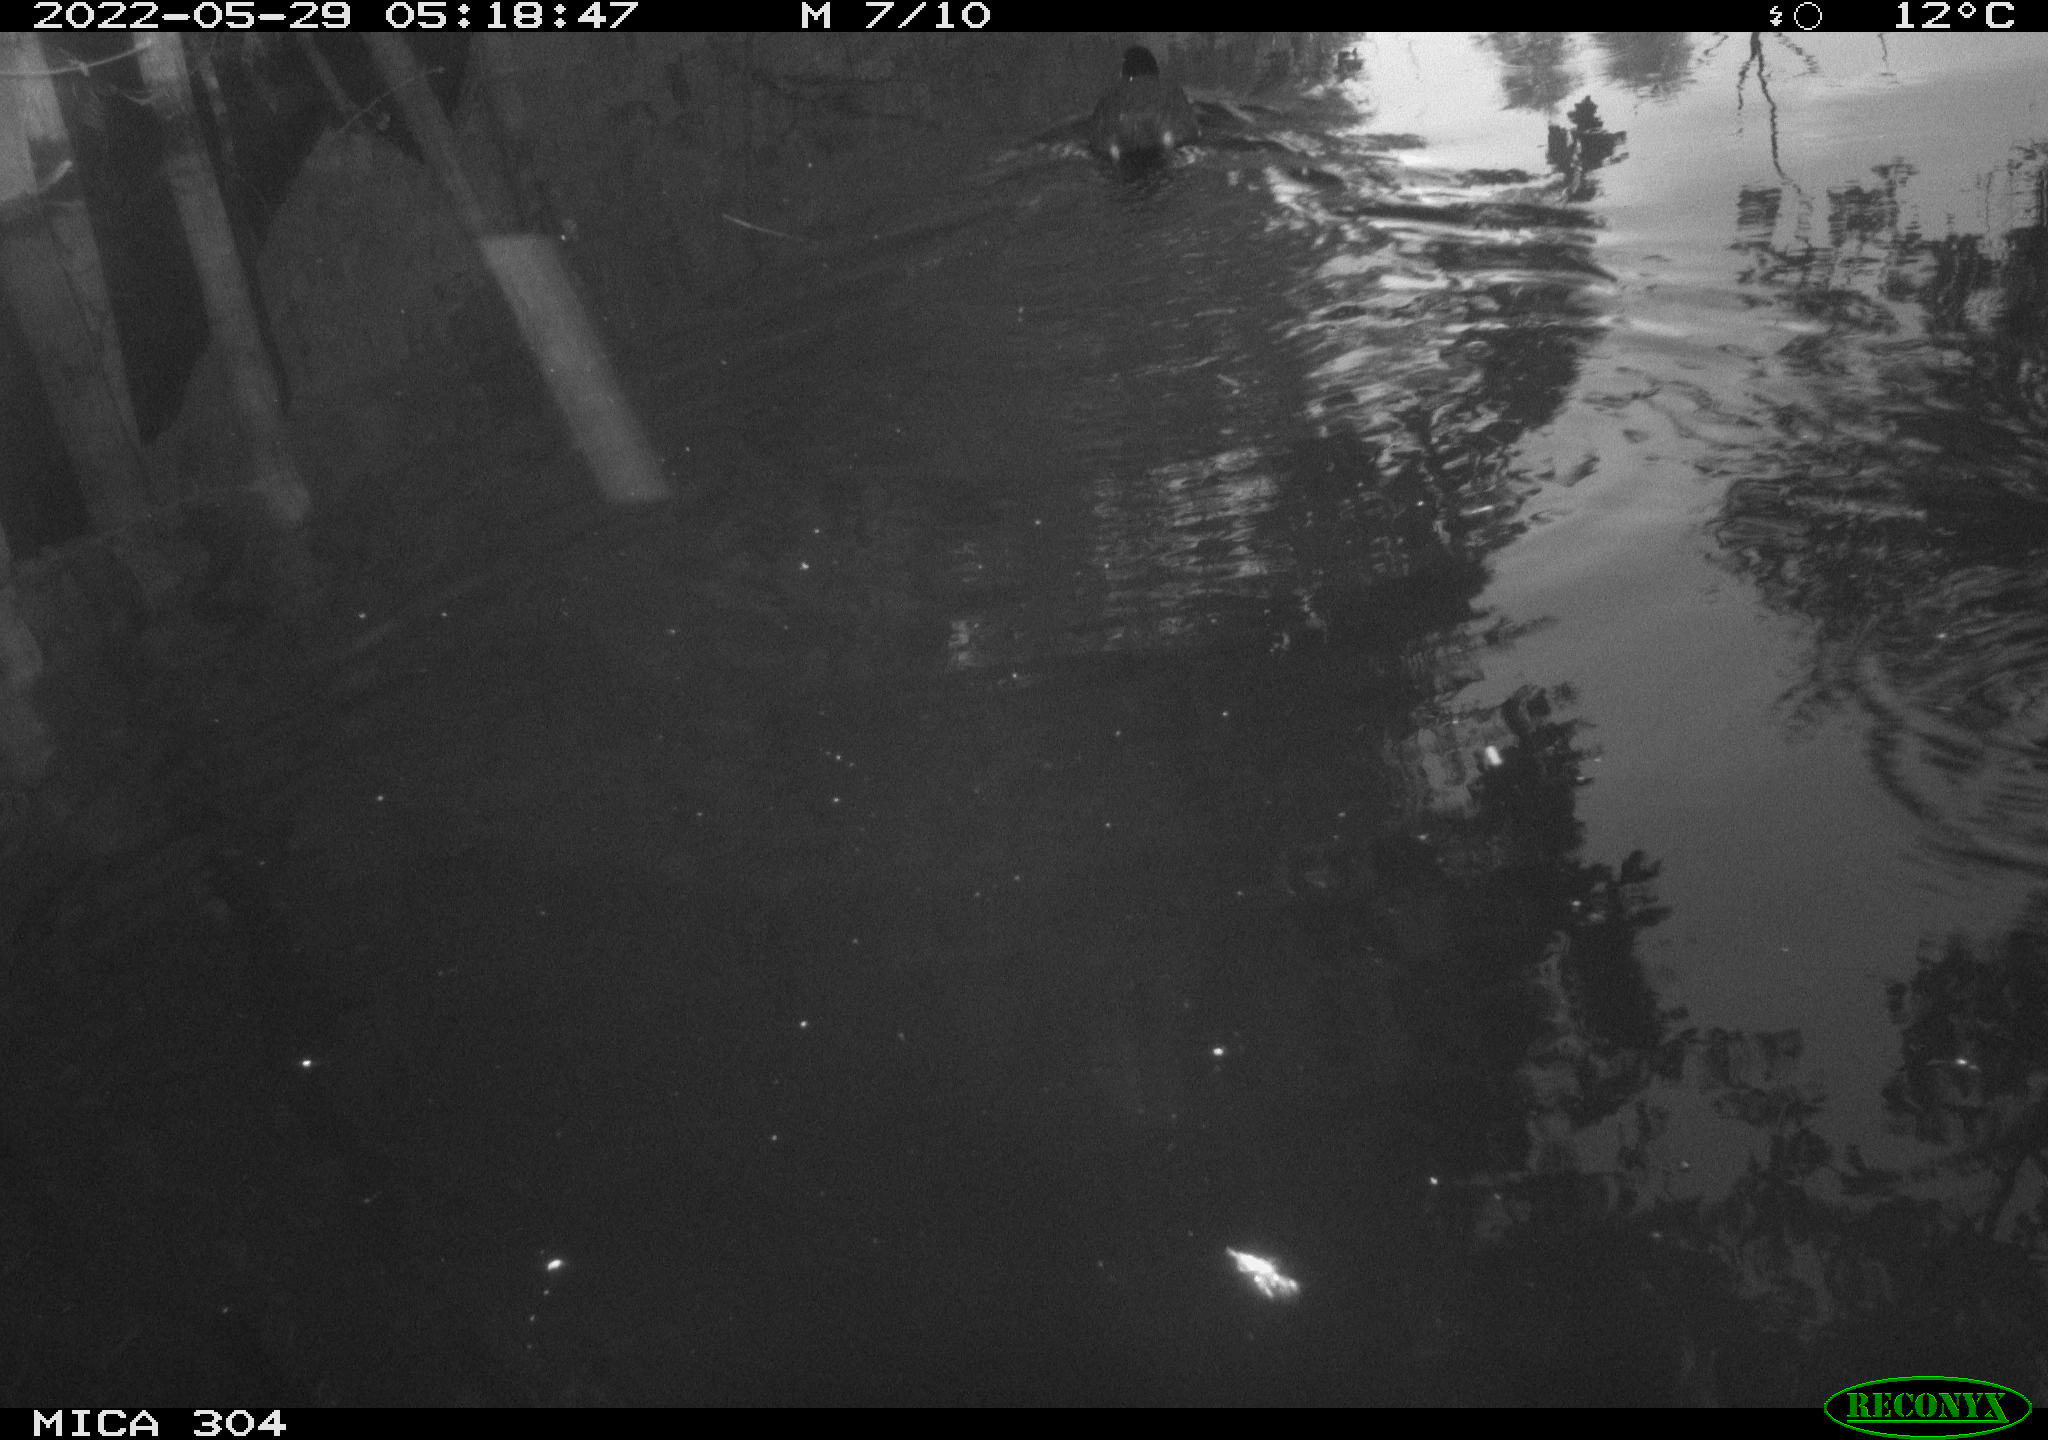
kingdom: Animalia
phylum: Chordata
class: Aves
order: Pelecaniformes
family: Ardeidae
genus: Ardea
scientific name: Ardea
